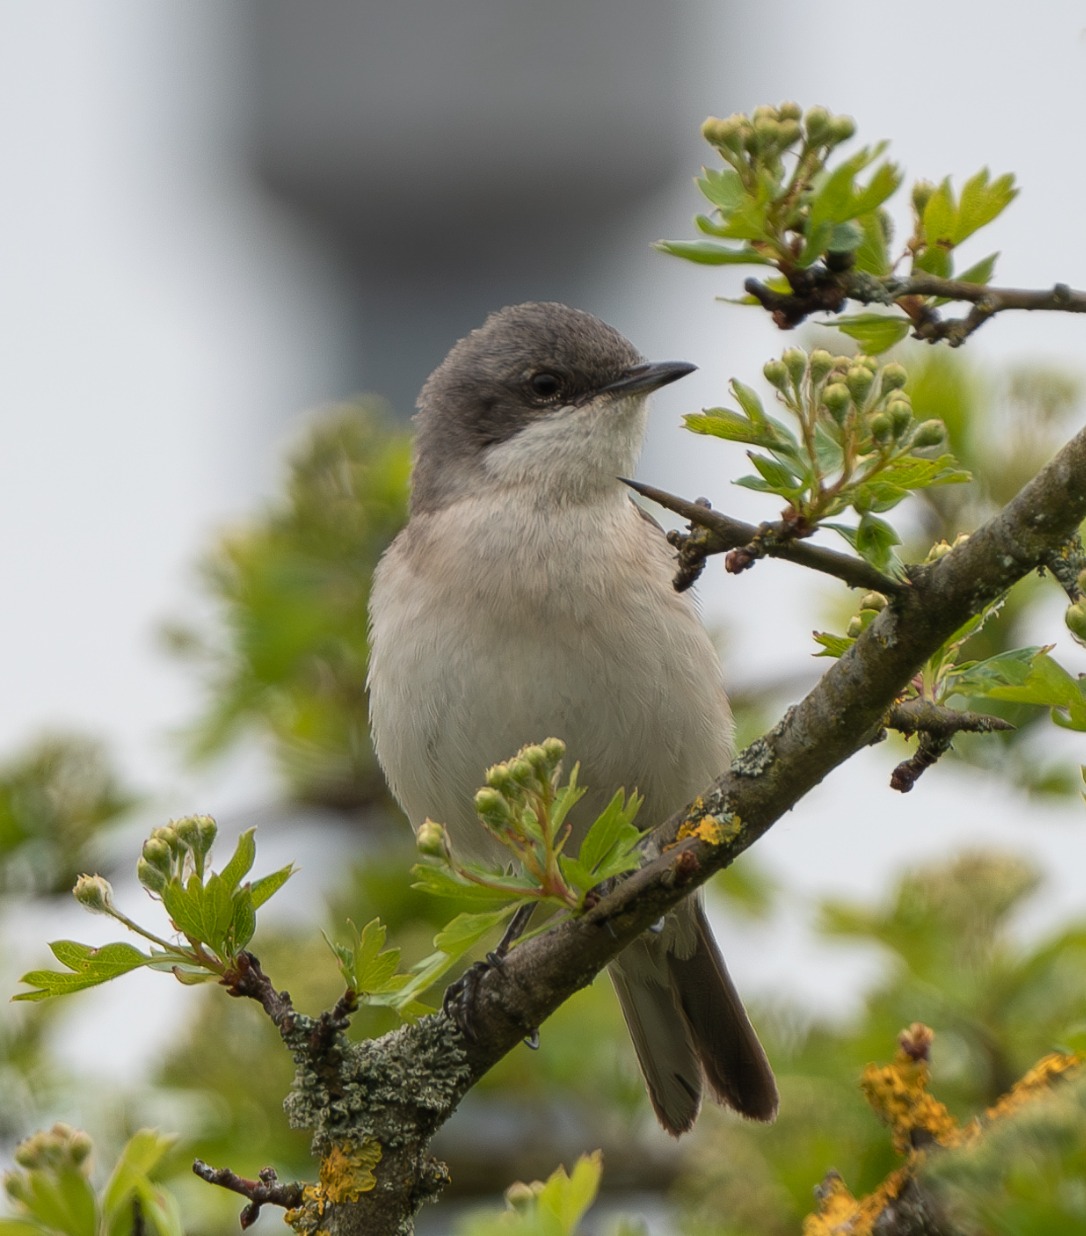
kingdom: Animalia
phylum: Chordata
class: Aves
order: Passeriformes
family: Sylviidae
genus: Sylvia
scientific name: Sylvia curruca
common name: Gærdesanger
